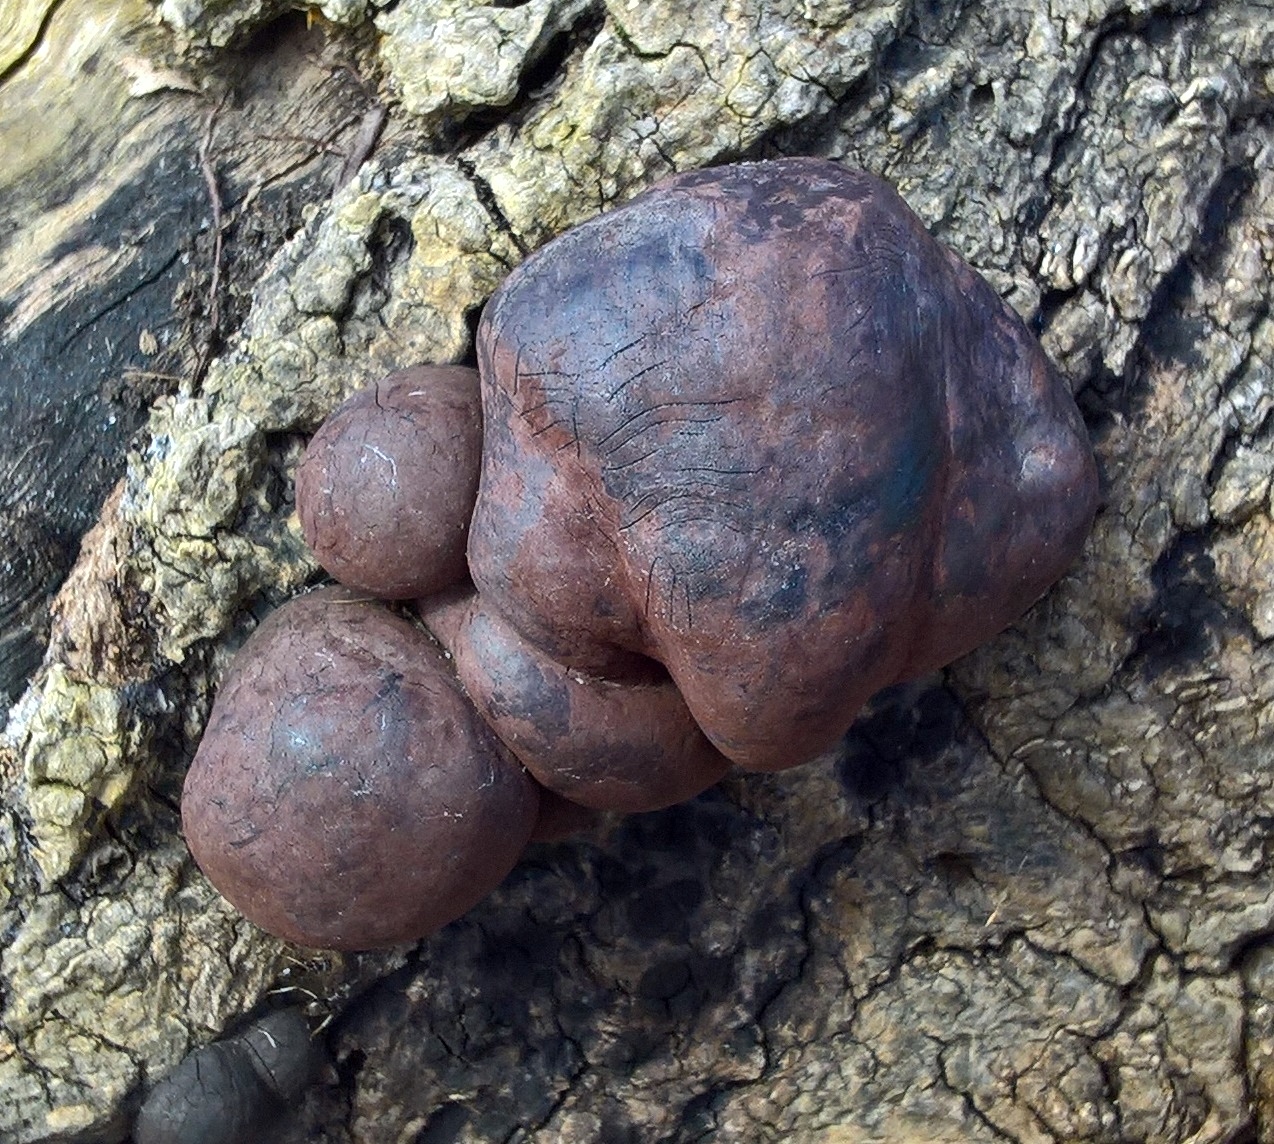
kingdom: Fungi
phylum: Ascomycota
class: Sordariomycetes
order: Xylariales
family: Hypoxylaceae
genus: Daldinia
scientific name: Daldinia concentrica
